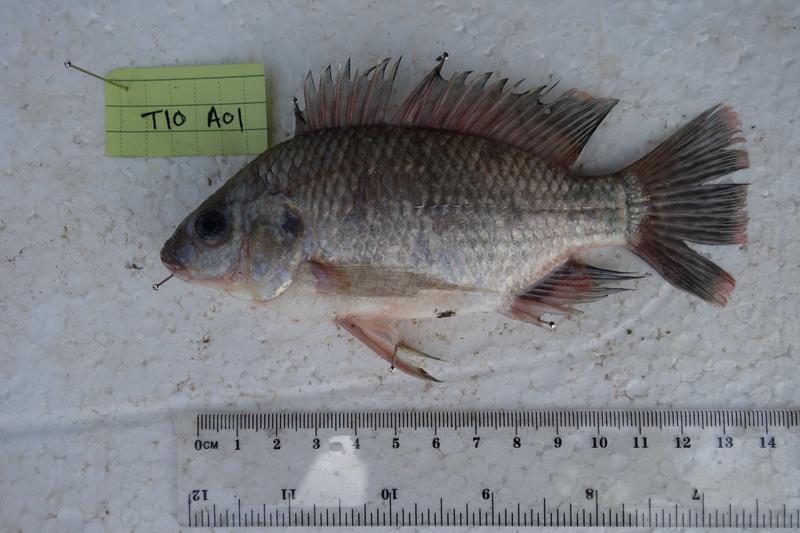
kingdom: Animalia
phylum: Chordata
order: Perciformes
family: Cichlidae
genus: Oreochromis
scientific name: Oreochromis rukwaensis
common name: Lake rukwa tilapia
